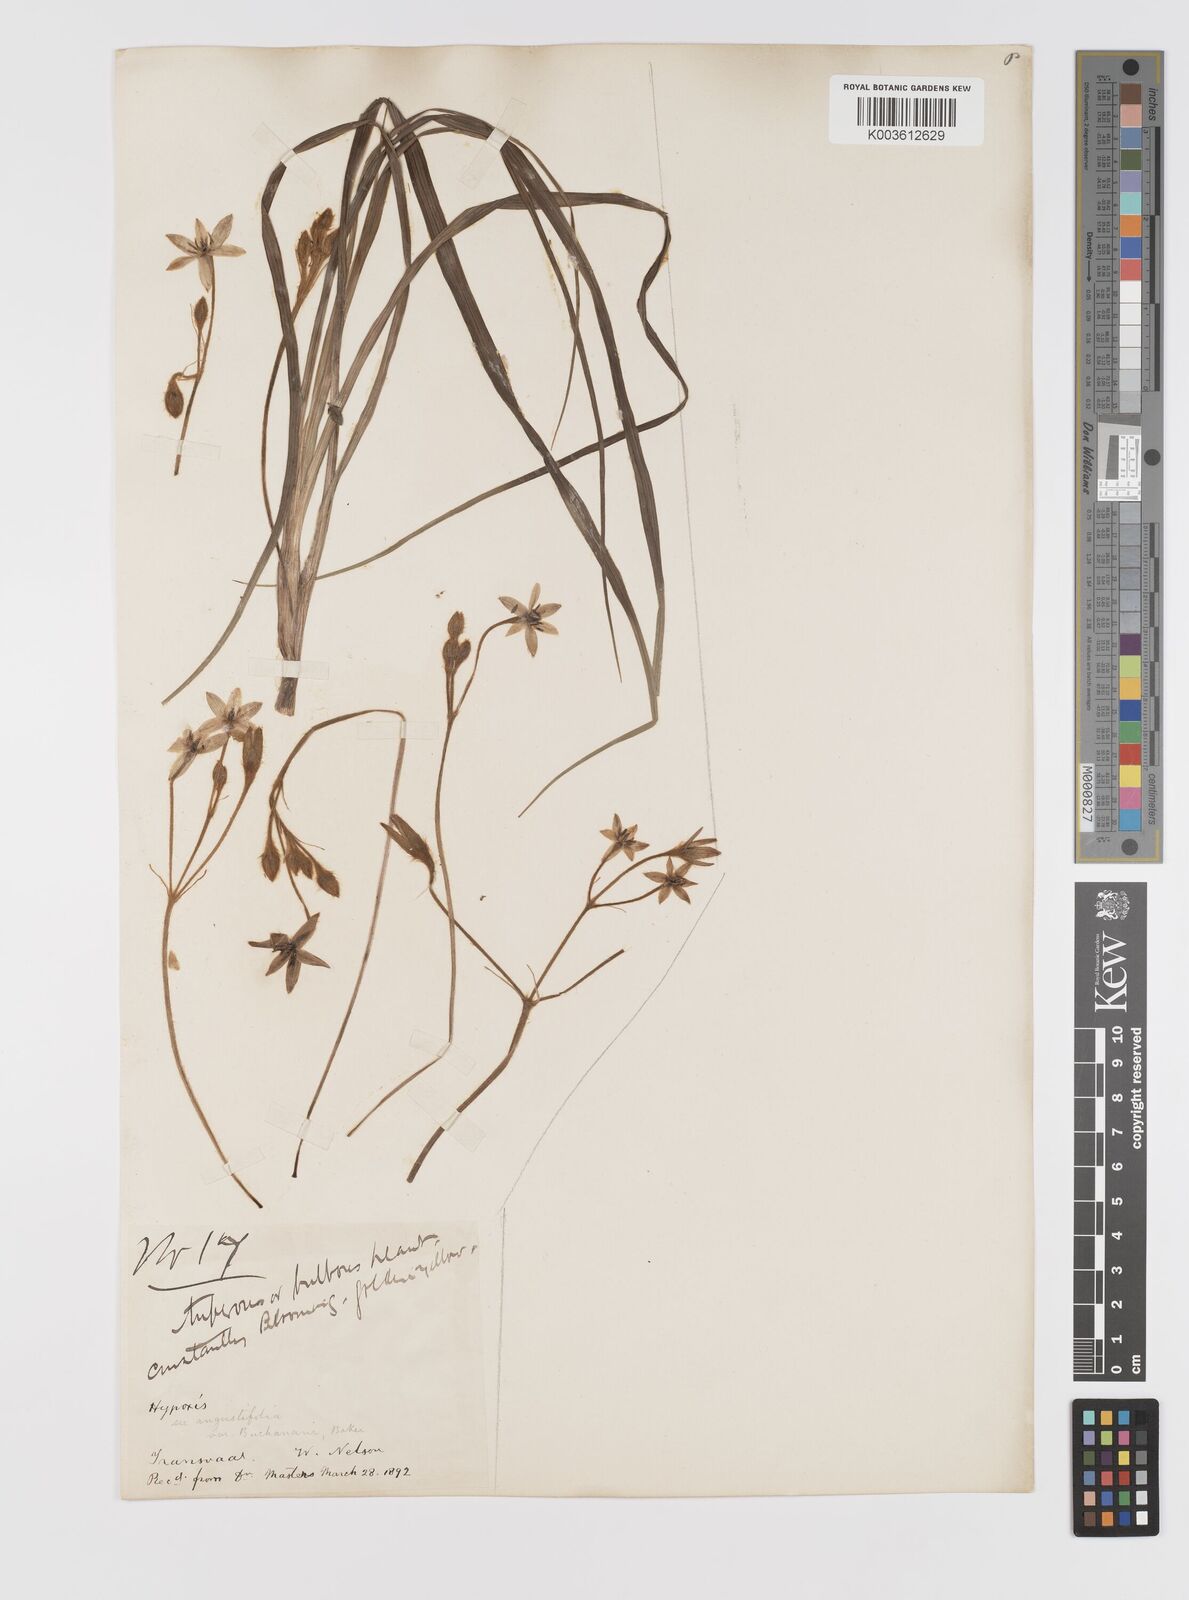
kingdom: Plantae
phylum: Tracheophyta
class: Liliopsida
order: Asparagales
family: Hypoxidaceae
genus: Hypoxis
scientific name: Hypoxis angustifolia
